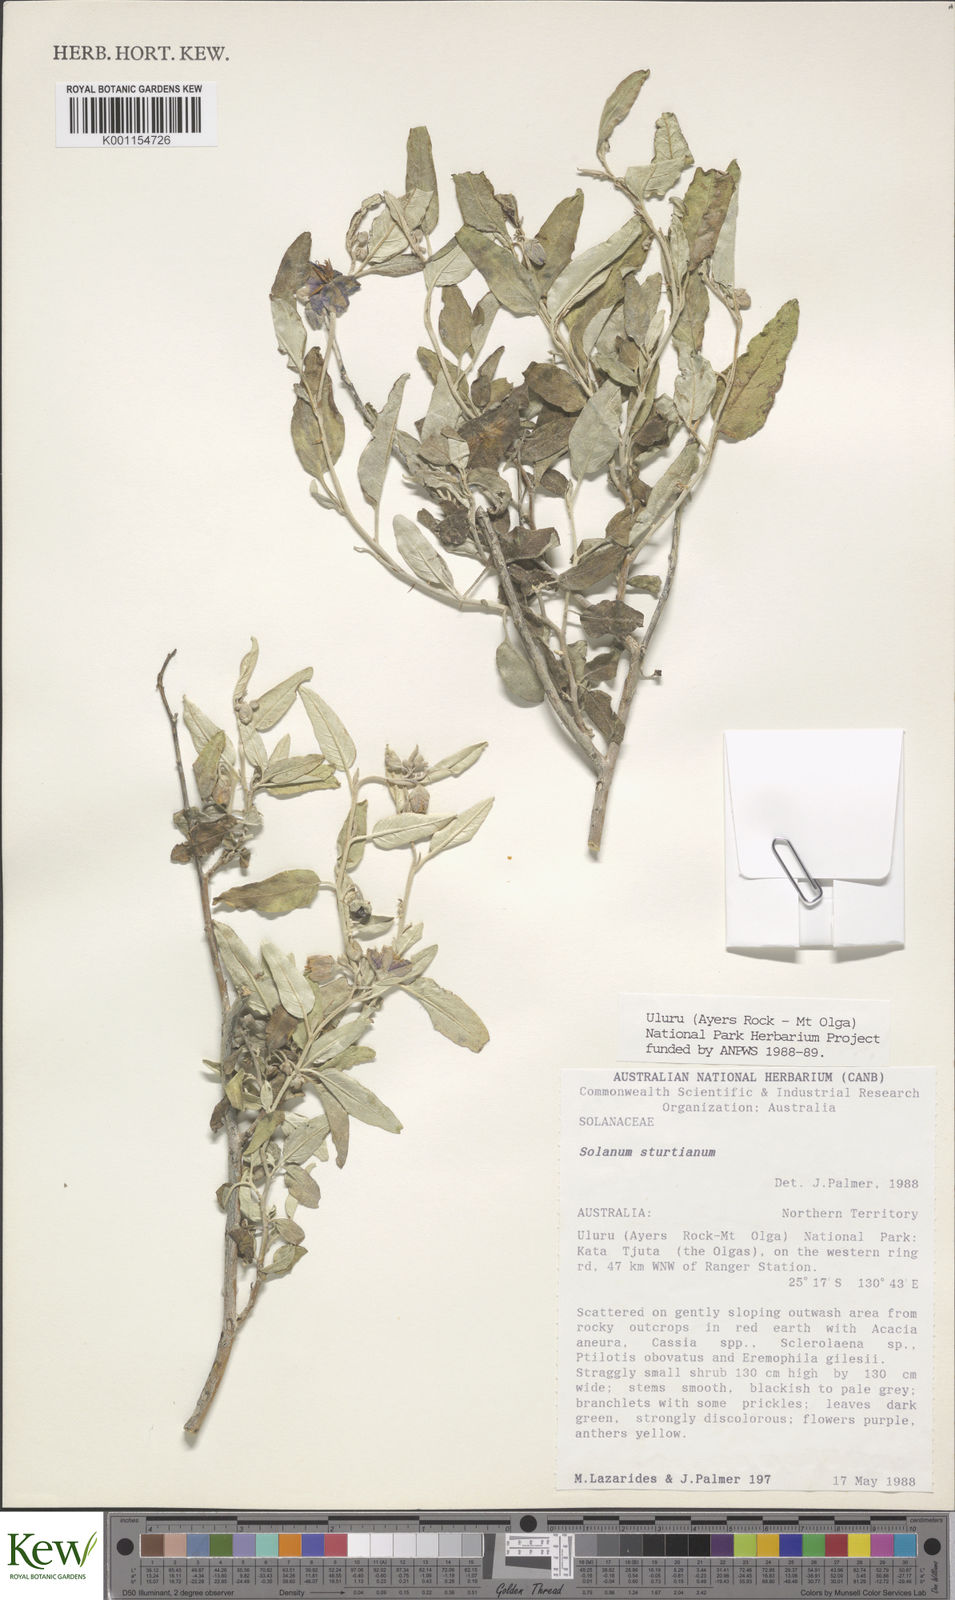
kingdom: Plantae
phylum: Tracheophyta
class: Magnoliopsida
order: Solanales
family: Solanaceae
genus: Solanum
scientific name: Solanum sturtianum
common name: Thargomindah nightshade
